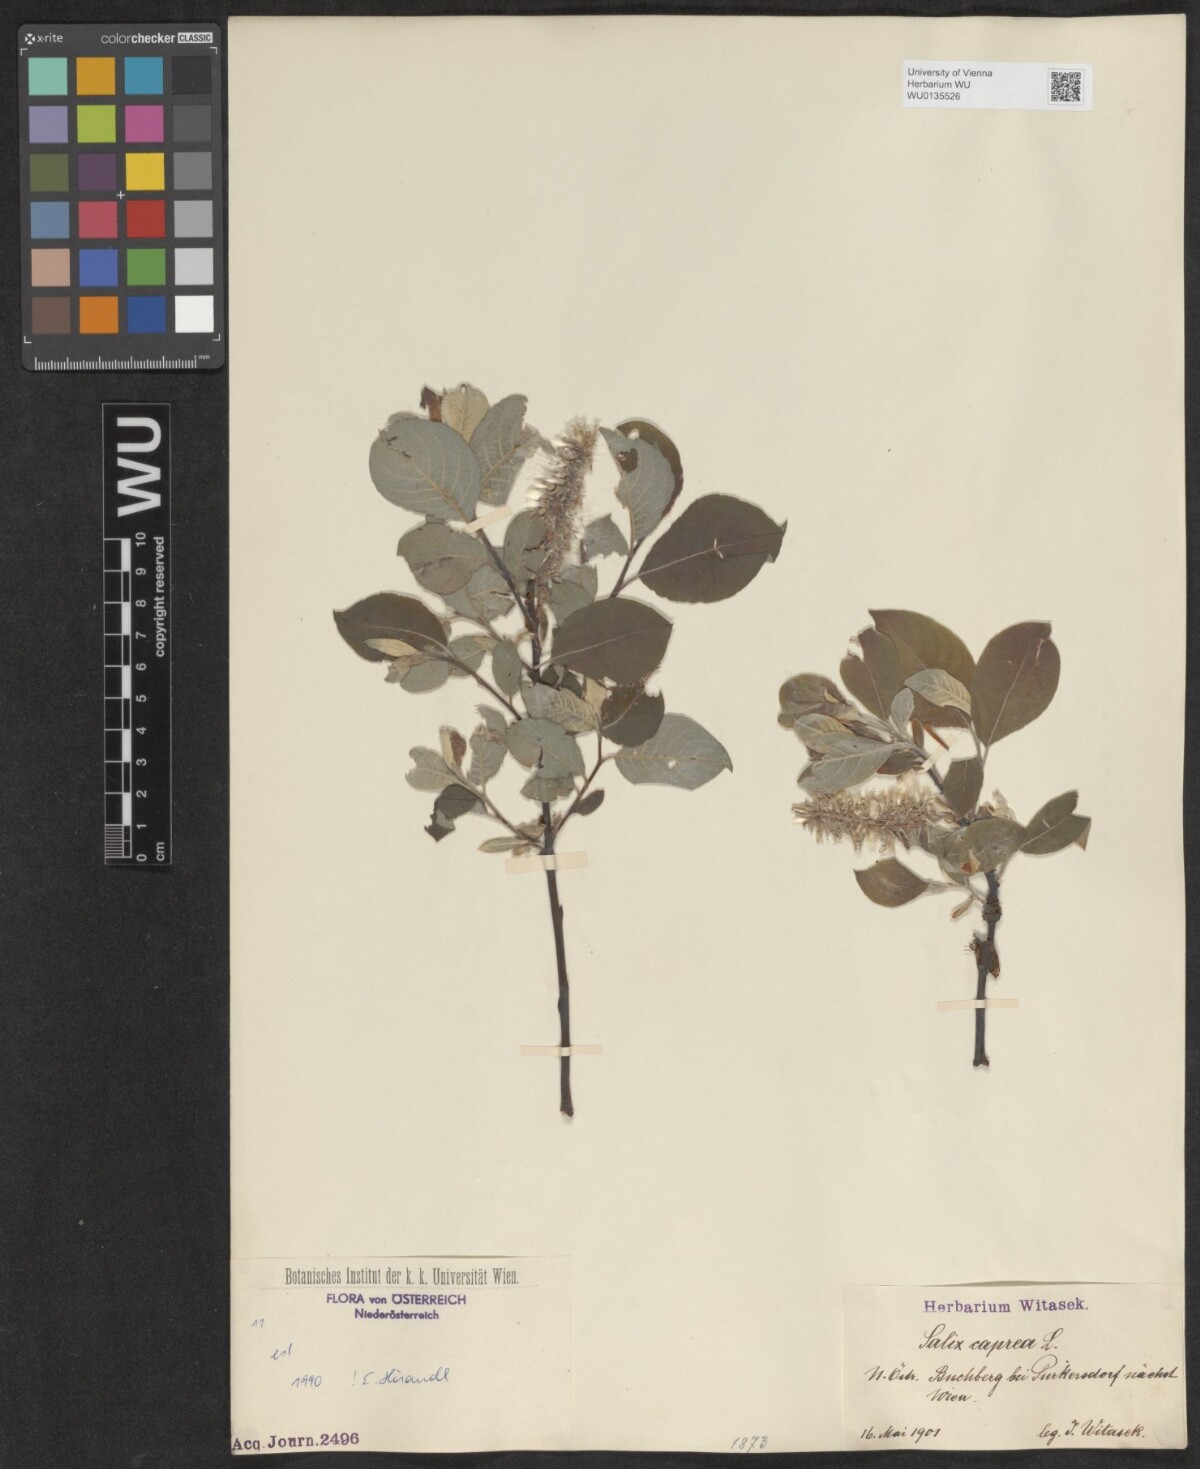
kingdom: Plantae
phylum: Tracheophyta
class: Magnoliopsida
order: Malpighiales
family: Salicaceae
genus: Salix
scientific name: Salix caprea
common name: Goat willow
